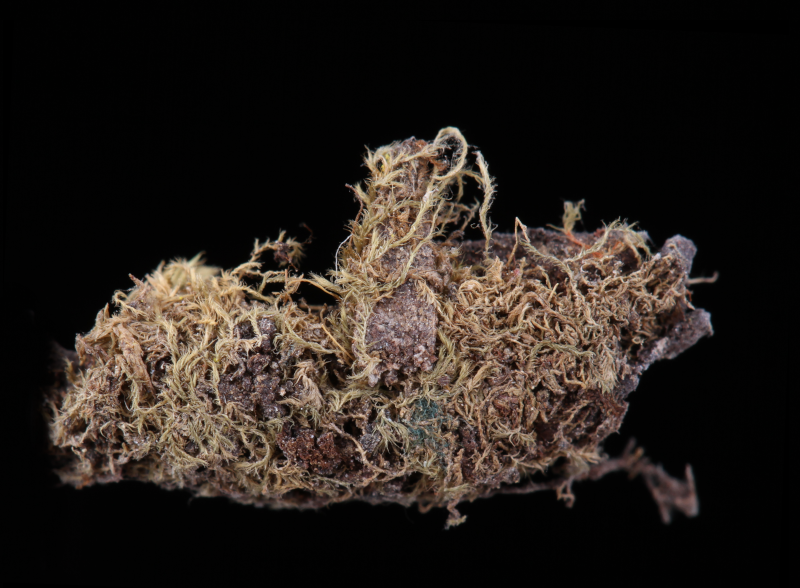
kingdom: Plantae
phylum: Bryophyta
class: Bryopsida
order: Hypnales
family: Fabroniaceae
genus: Fabronia
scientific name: Fabronia curvirostris
